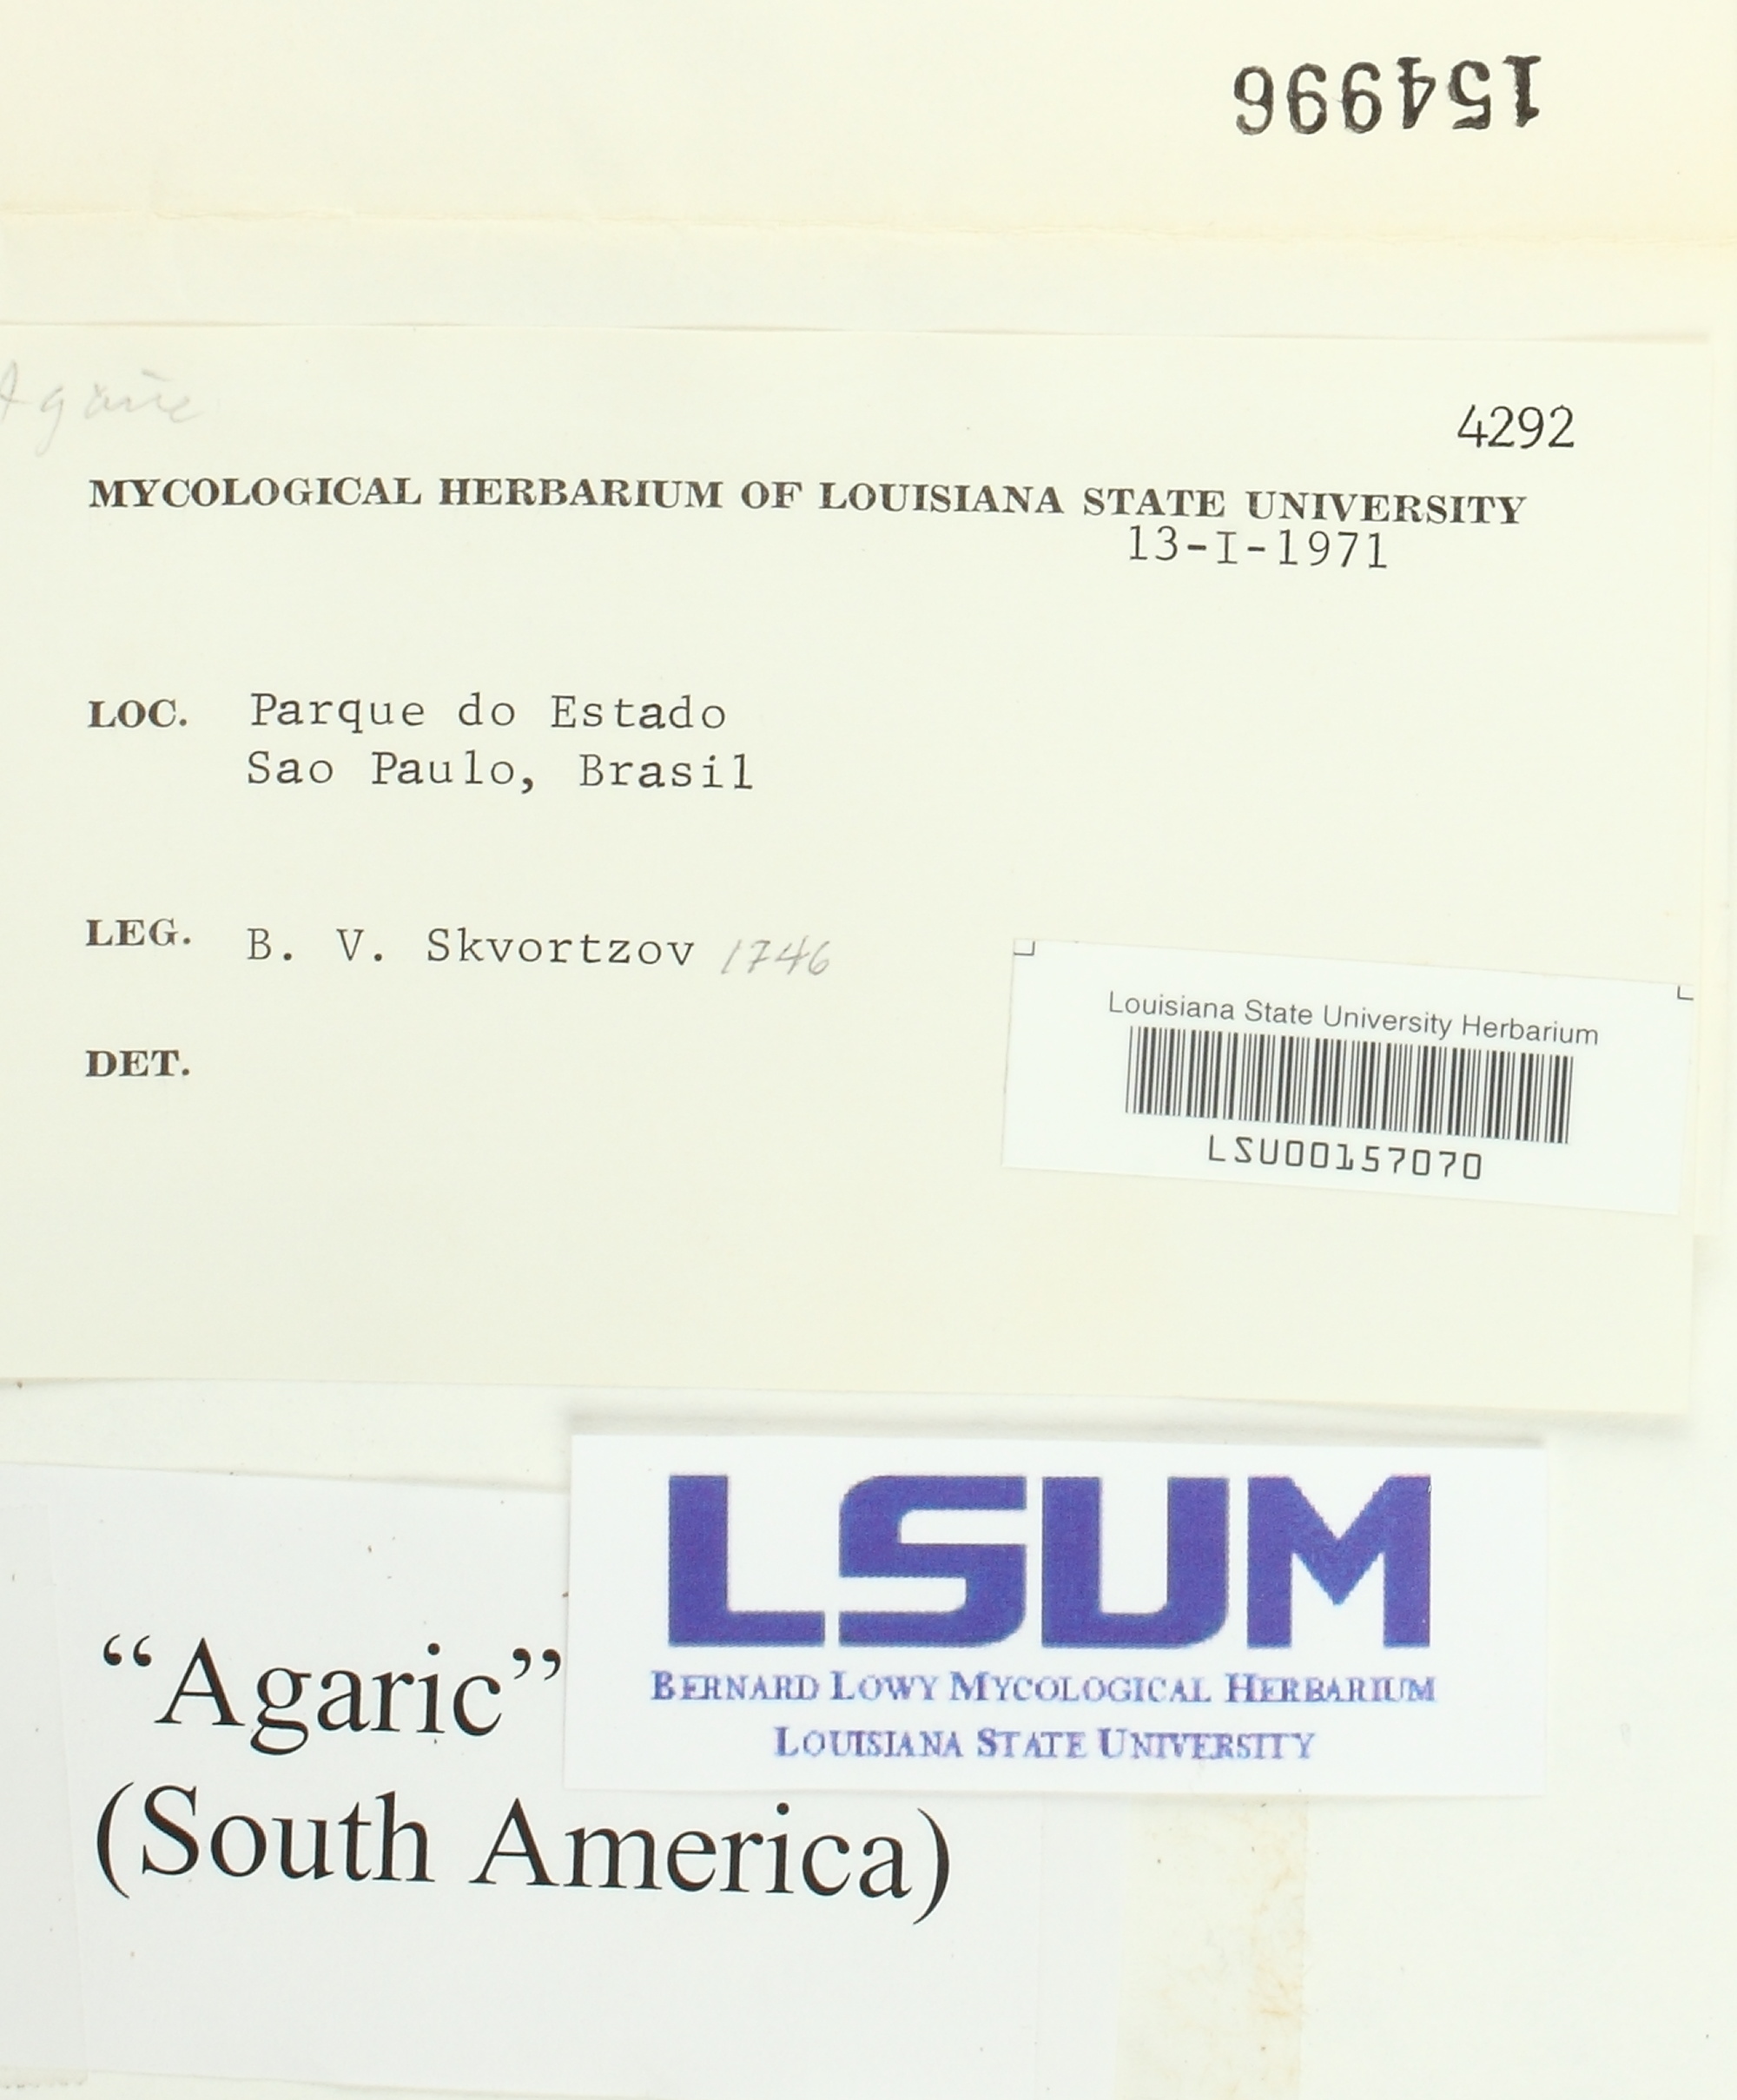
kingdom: Fungi
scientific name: Fungi
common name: Fungi
